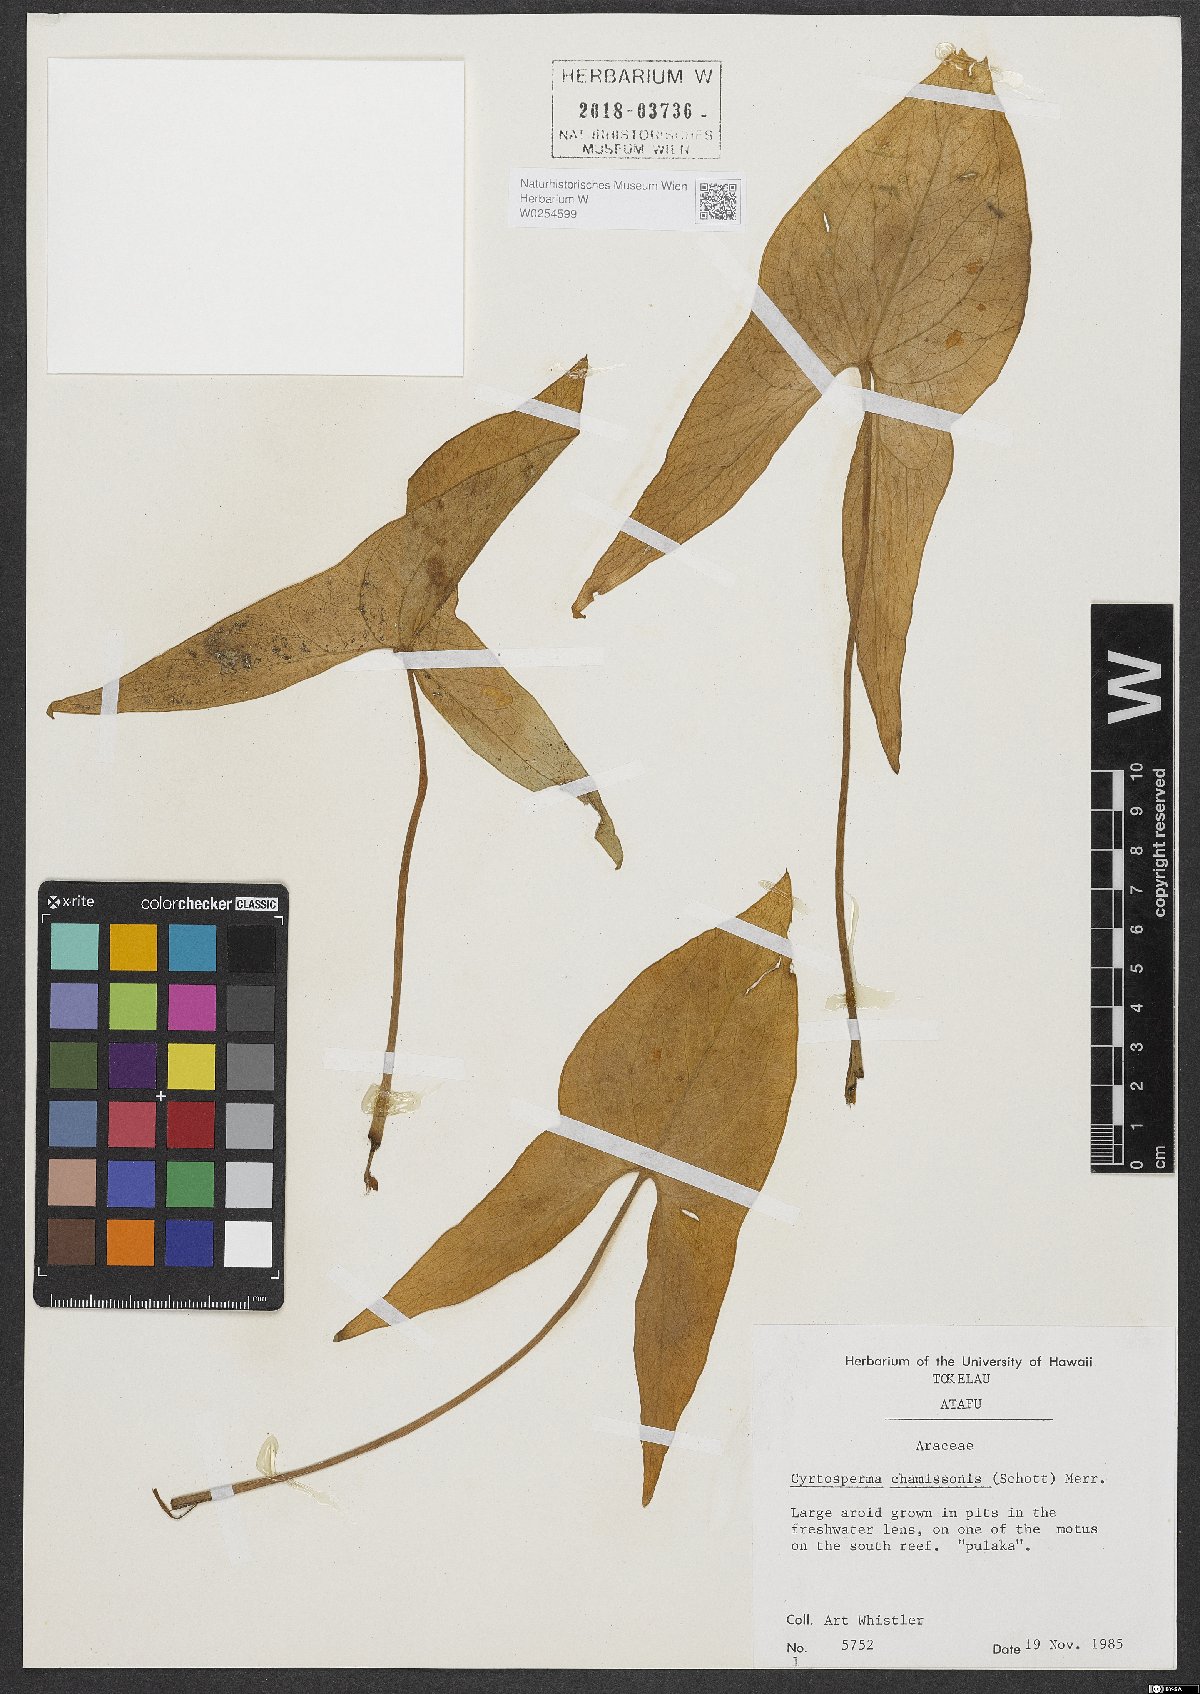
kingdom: Plantae
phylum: Tracheophyta
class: Liliopsida
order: Alismatales
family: Araceae
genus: Cyrtosperma
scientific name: Cyrtosperma merkusii
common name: Giant swamp-taro
